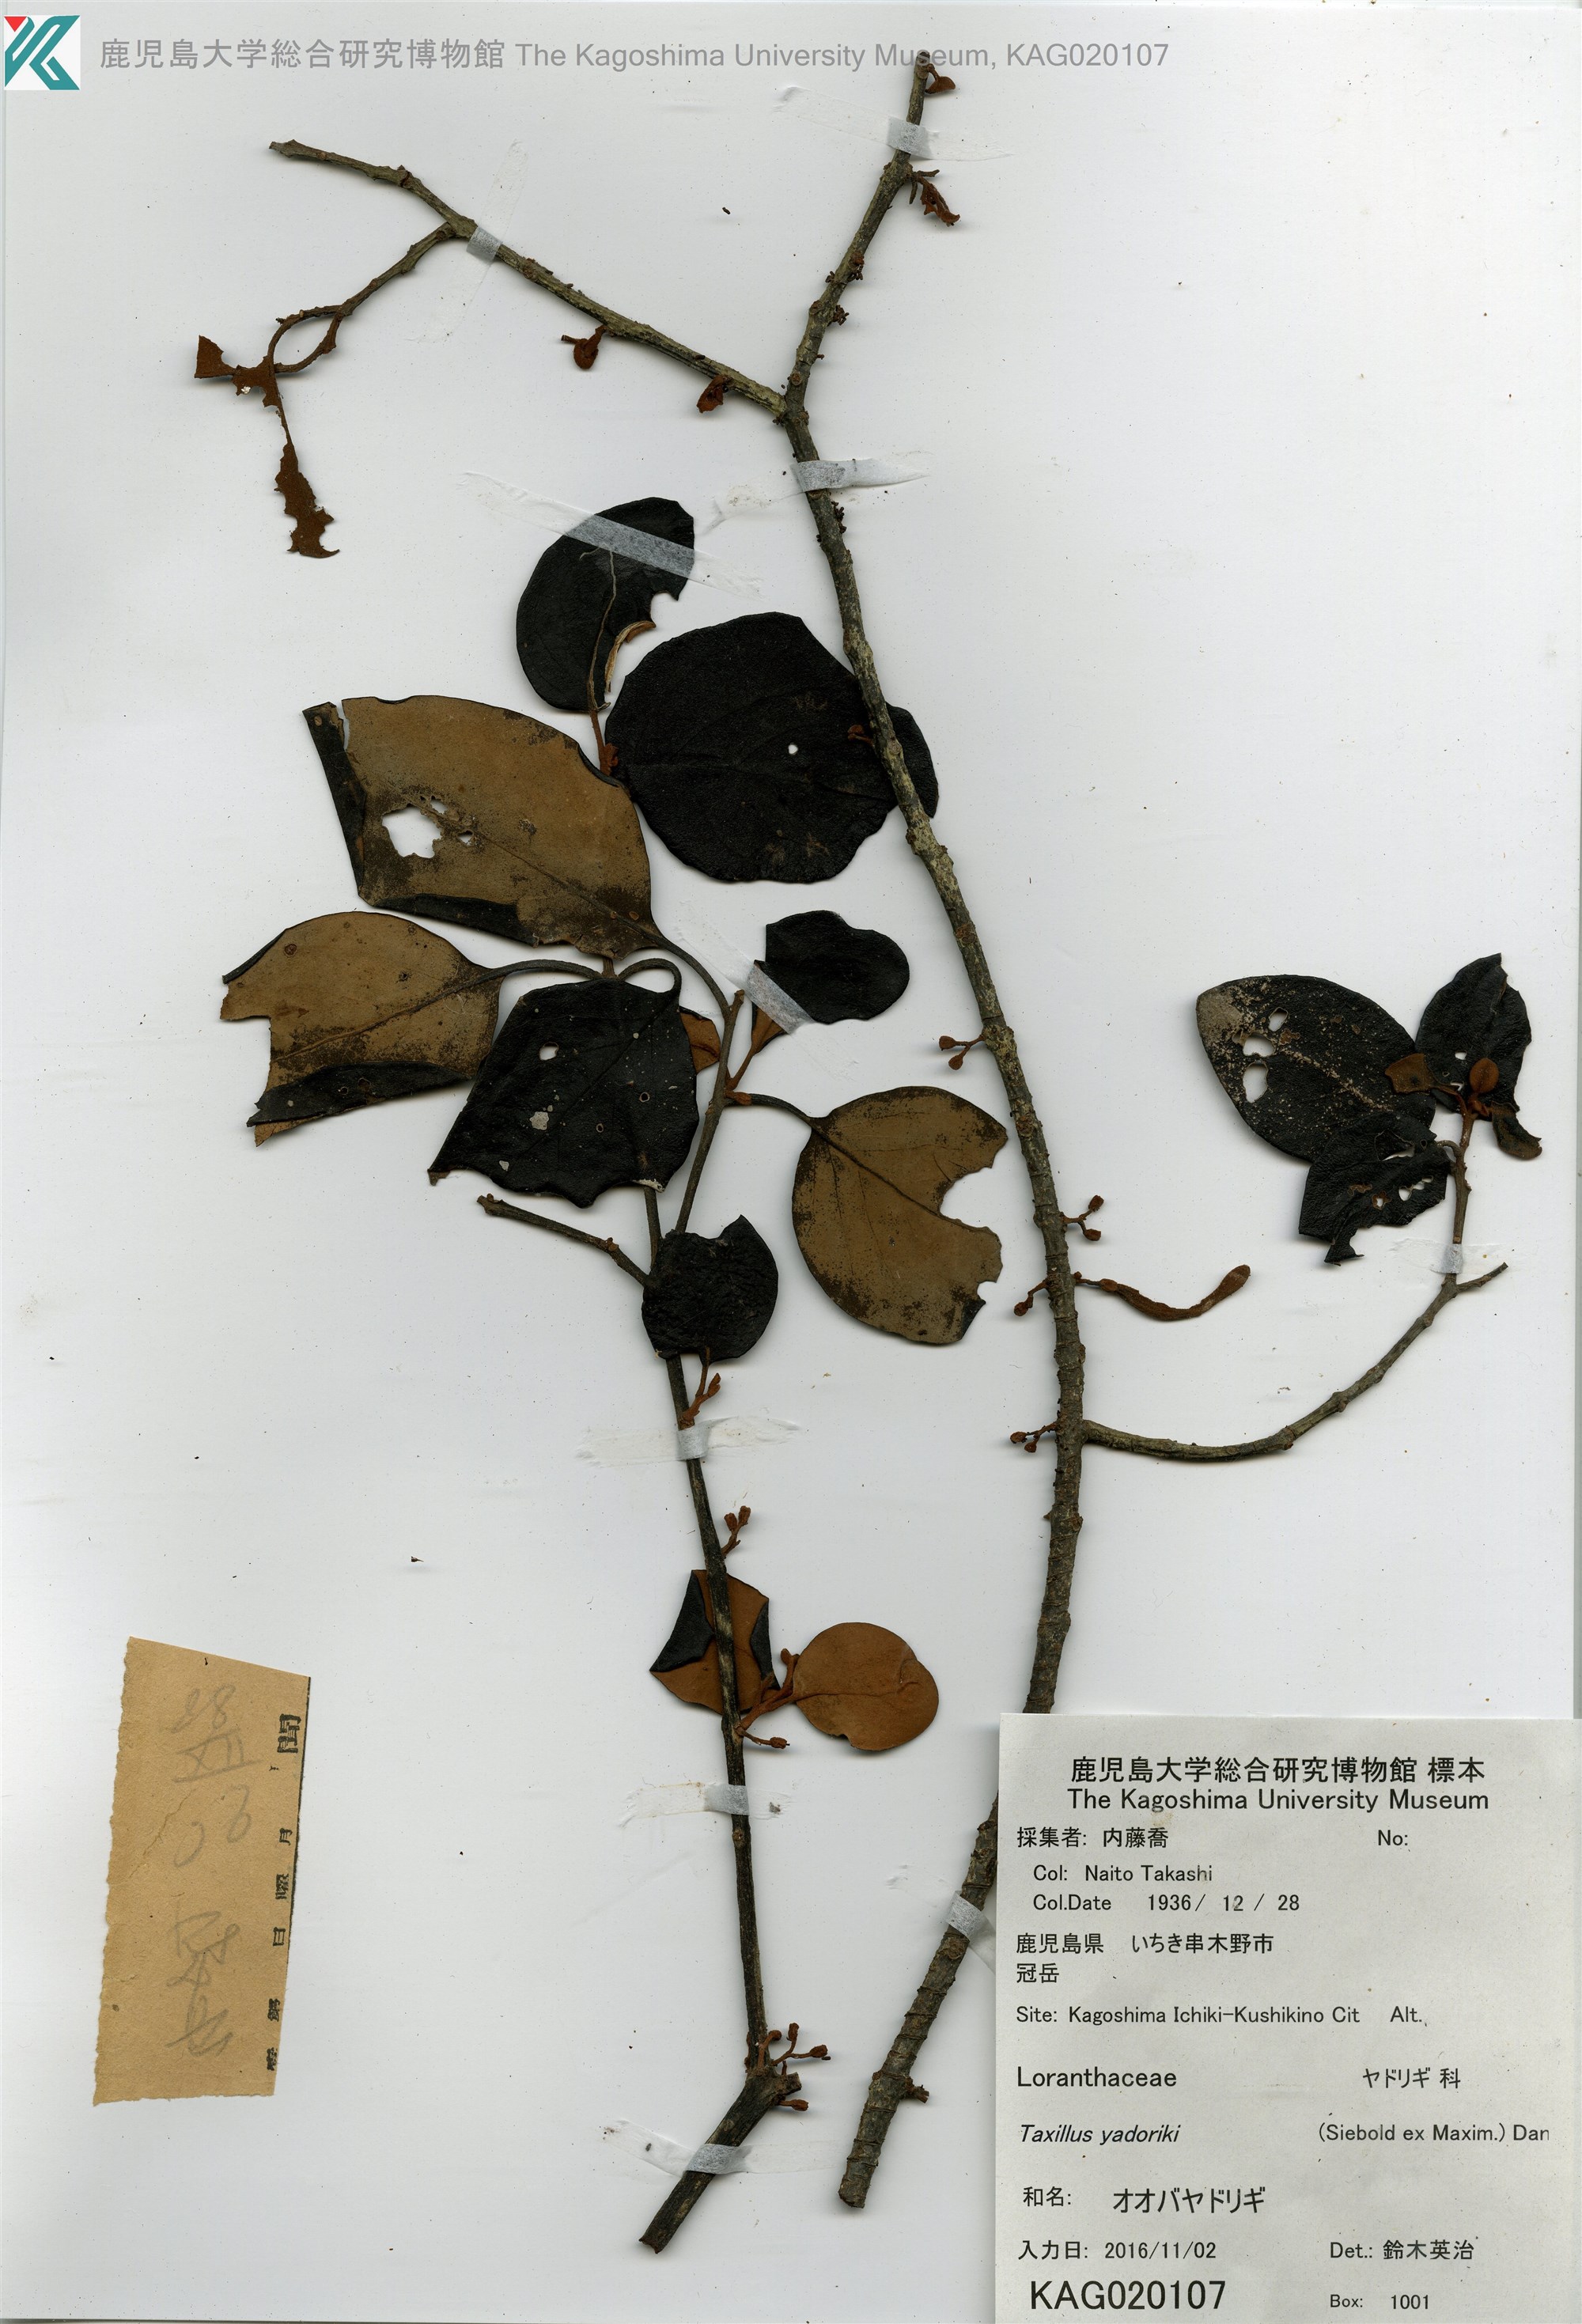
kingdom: Plantae
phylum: Tracheophyta
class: Magnoliopsida
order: Santalales
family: Loranthaceae
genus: Taxillus
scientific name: Taxillus sutchuenensis
